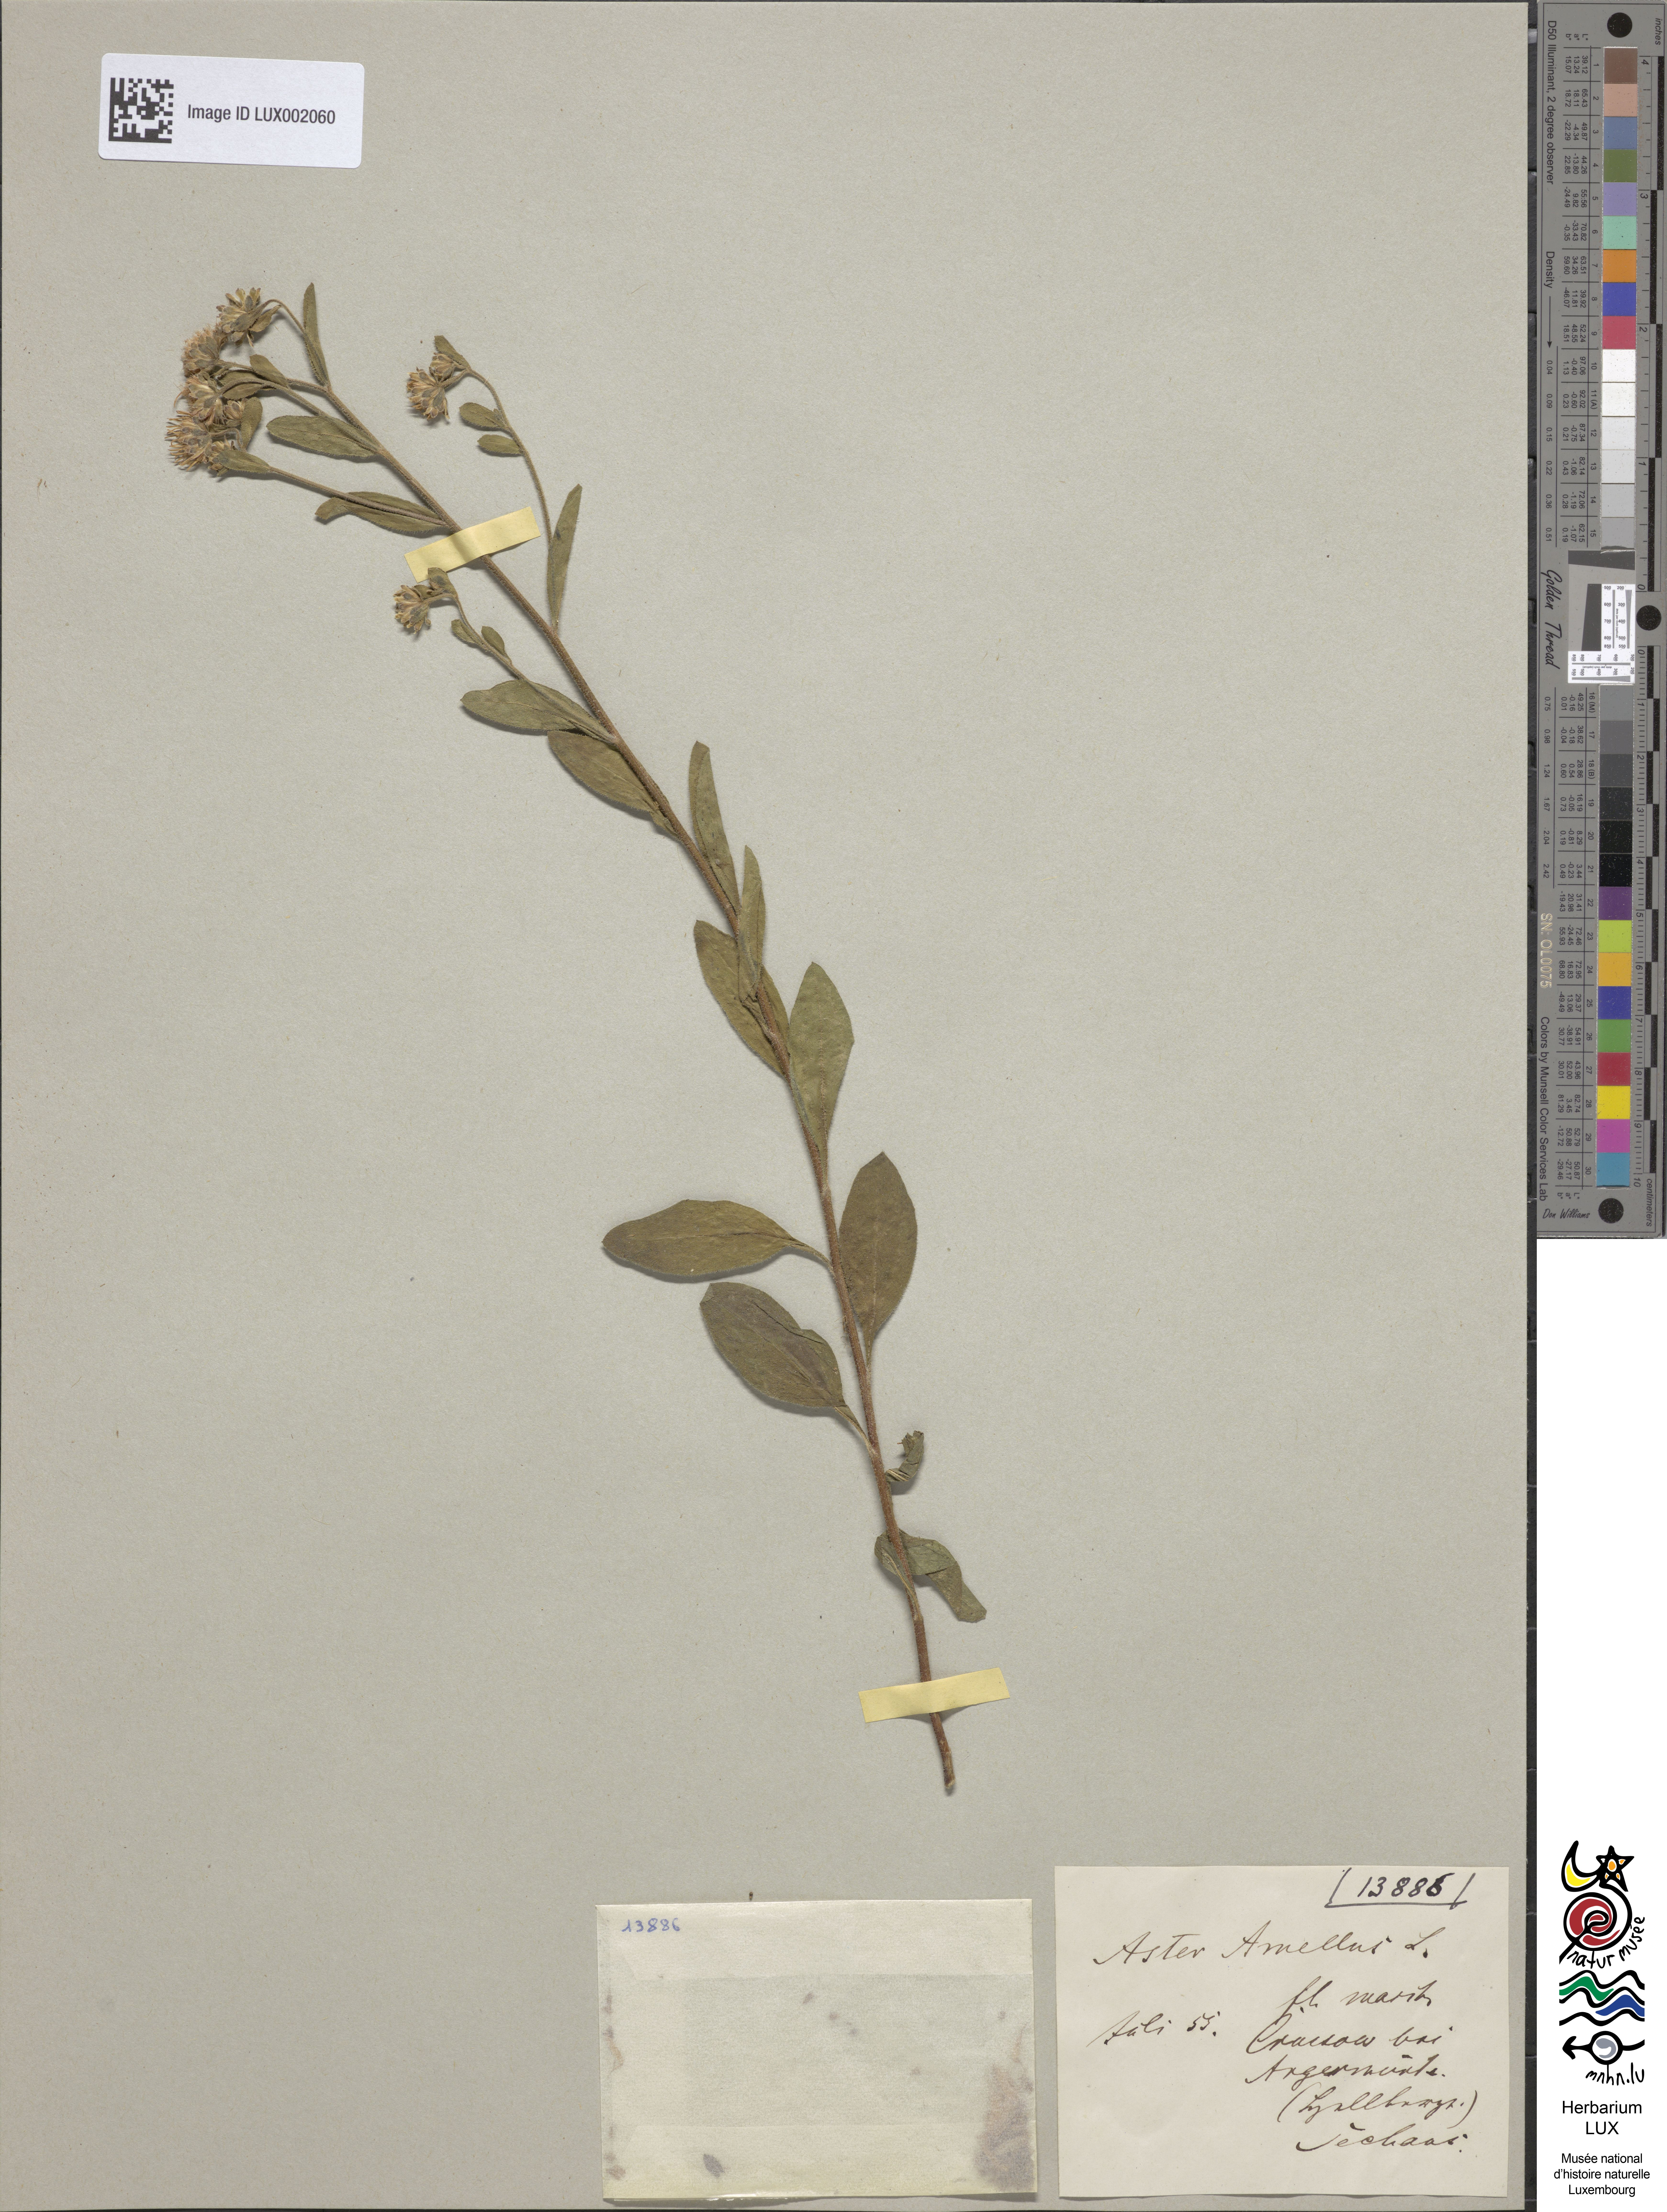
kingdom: Plantae
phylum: Tracheophyta
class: Magnoliopsida
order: Asterales
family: Asteraceae
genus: Aster
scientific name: Aster amellus
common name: European michaelmas daisy
